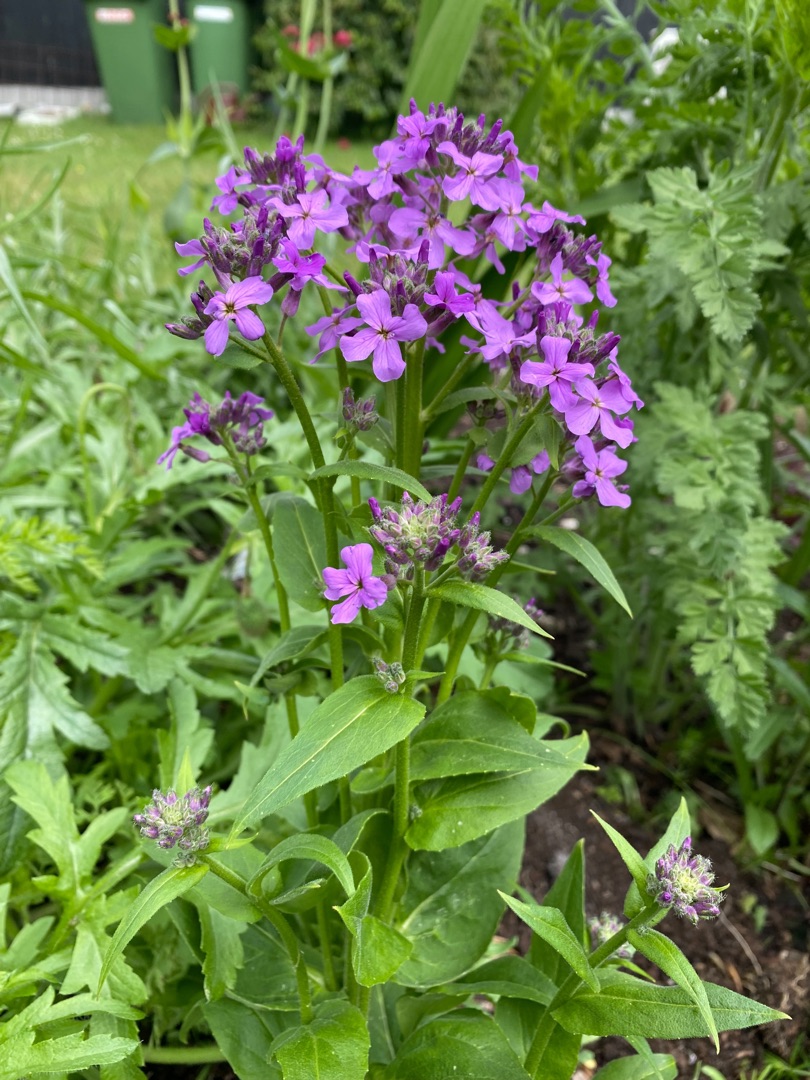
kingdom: Plantae
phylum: Tracheophyta
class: Magnoliopsida
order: Brassicales
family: Brassicaceae
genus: Hesperis
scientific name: Hesperis matronalis
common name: Aftenstjerne
